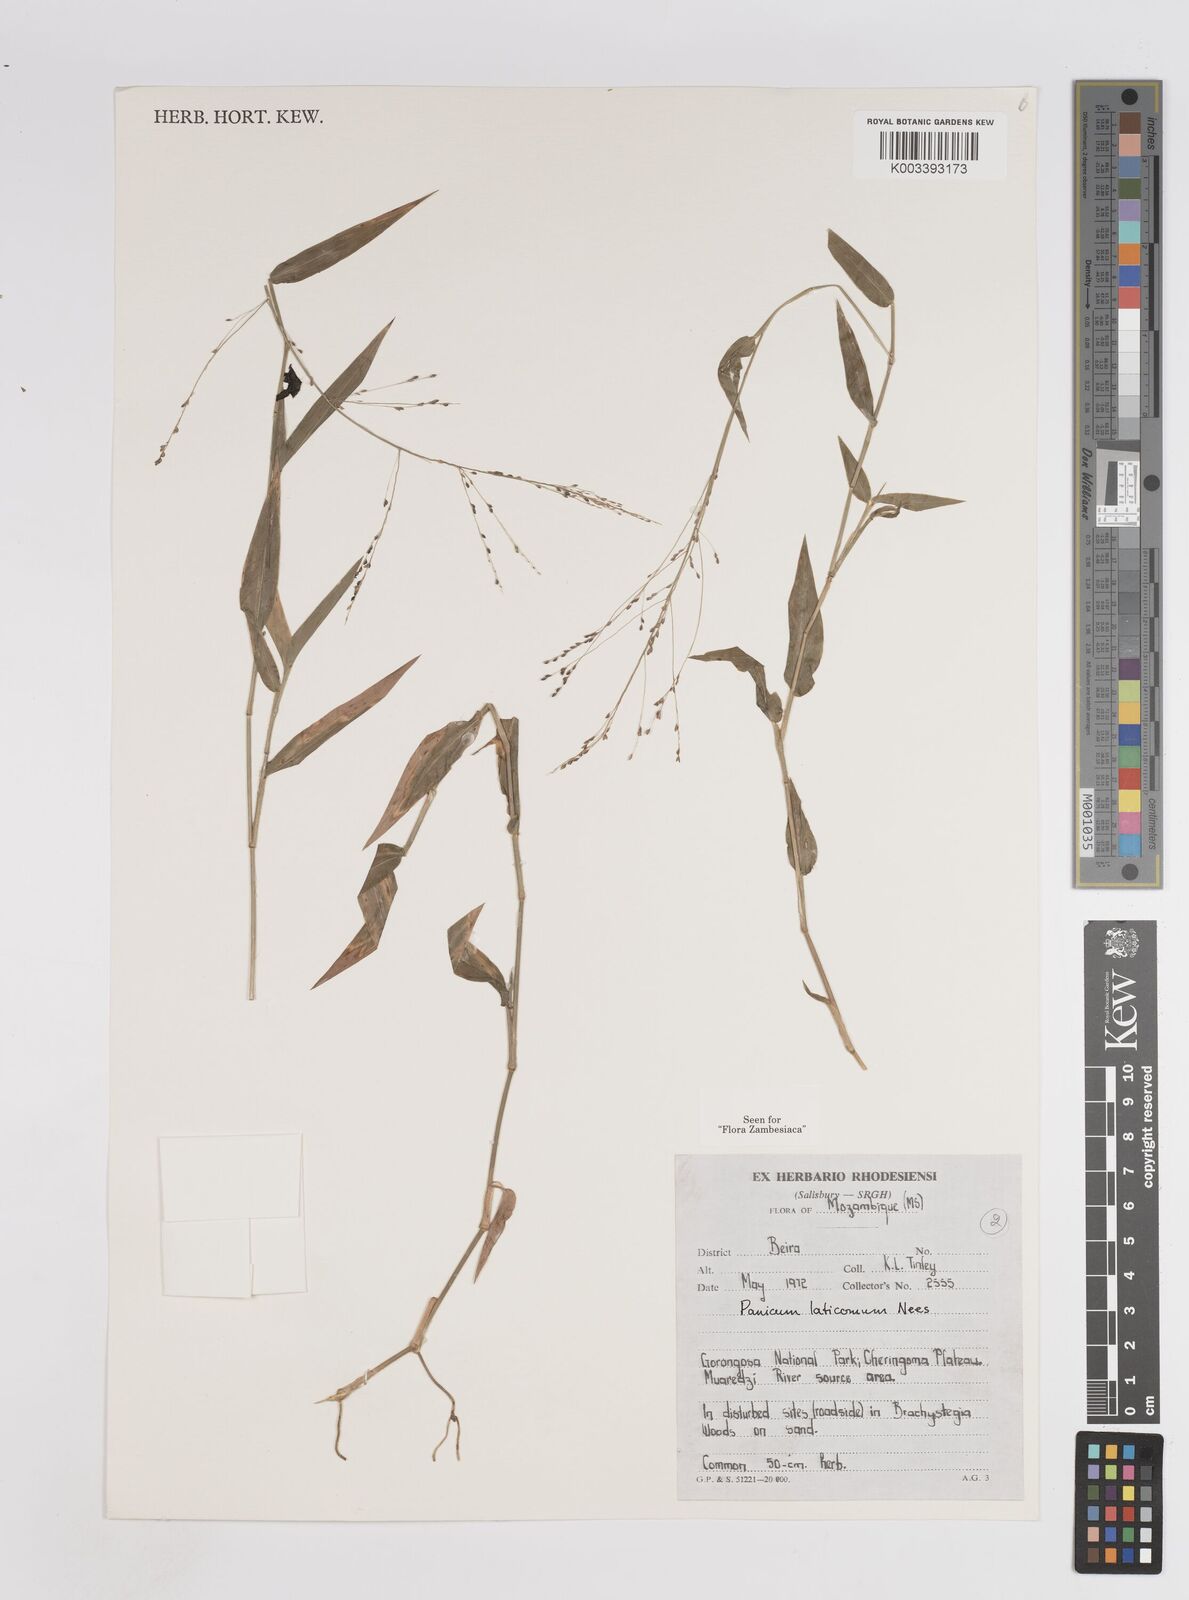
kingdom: Plantae
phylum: Tracheophyta
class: Liliopsida
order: Poales
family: Poaceae
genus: Panicum
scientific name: Panicum laticomum
